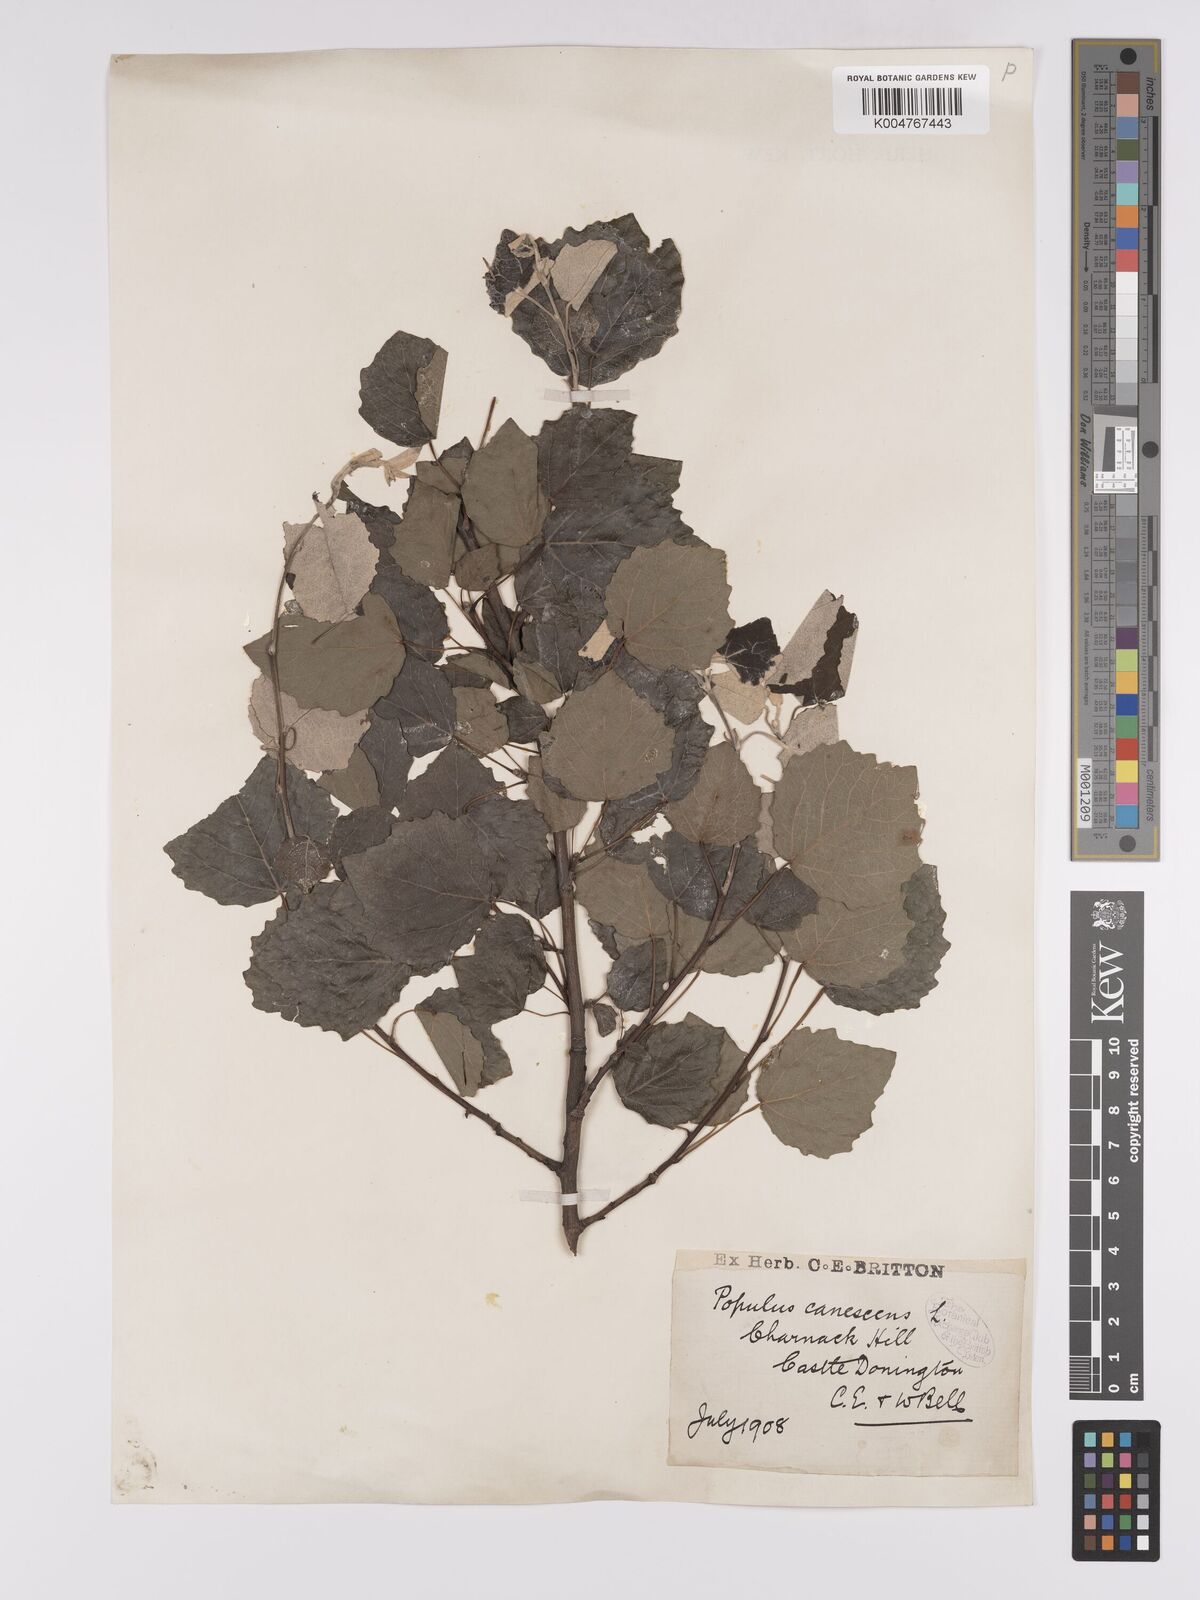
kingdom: Plantae
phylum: Tracheophyta
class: Magnoliopsida
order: Malpighiales
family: Salicaceae
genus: Populus
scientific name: Populus canescens
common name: Gray poplar
